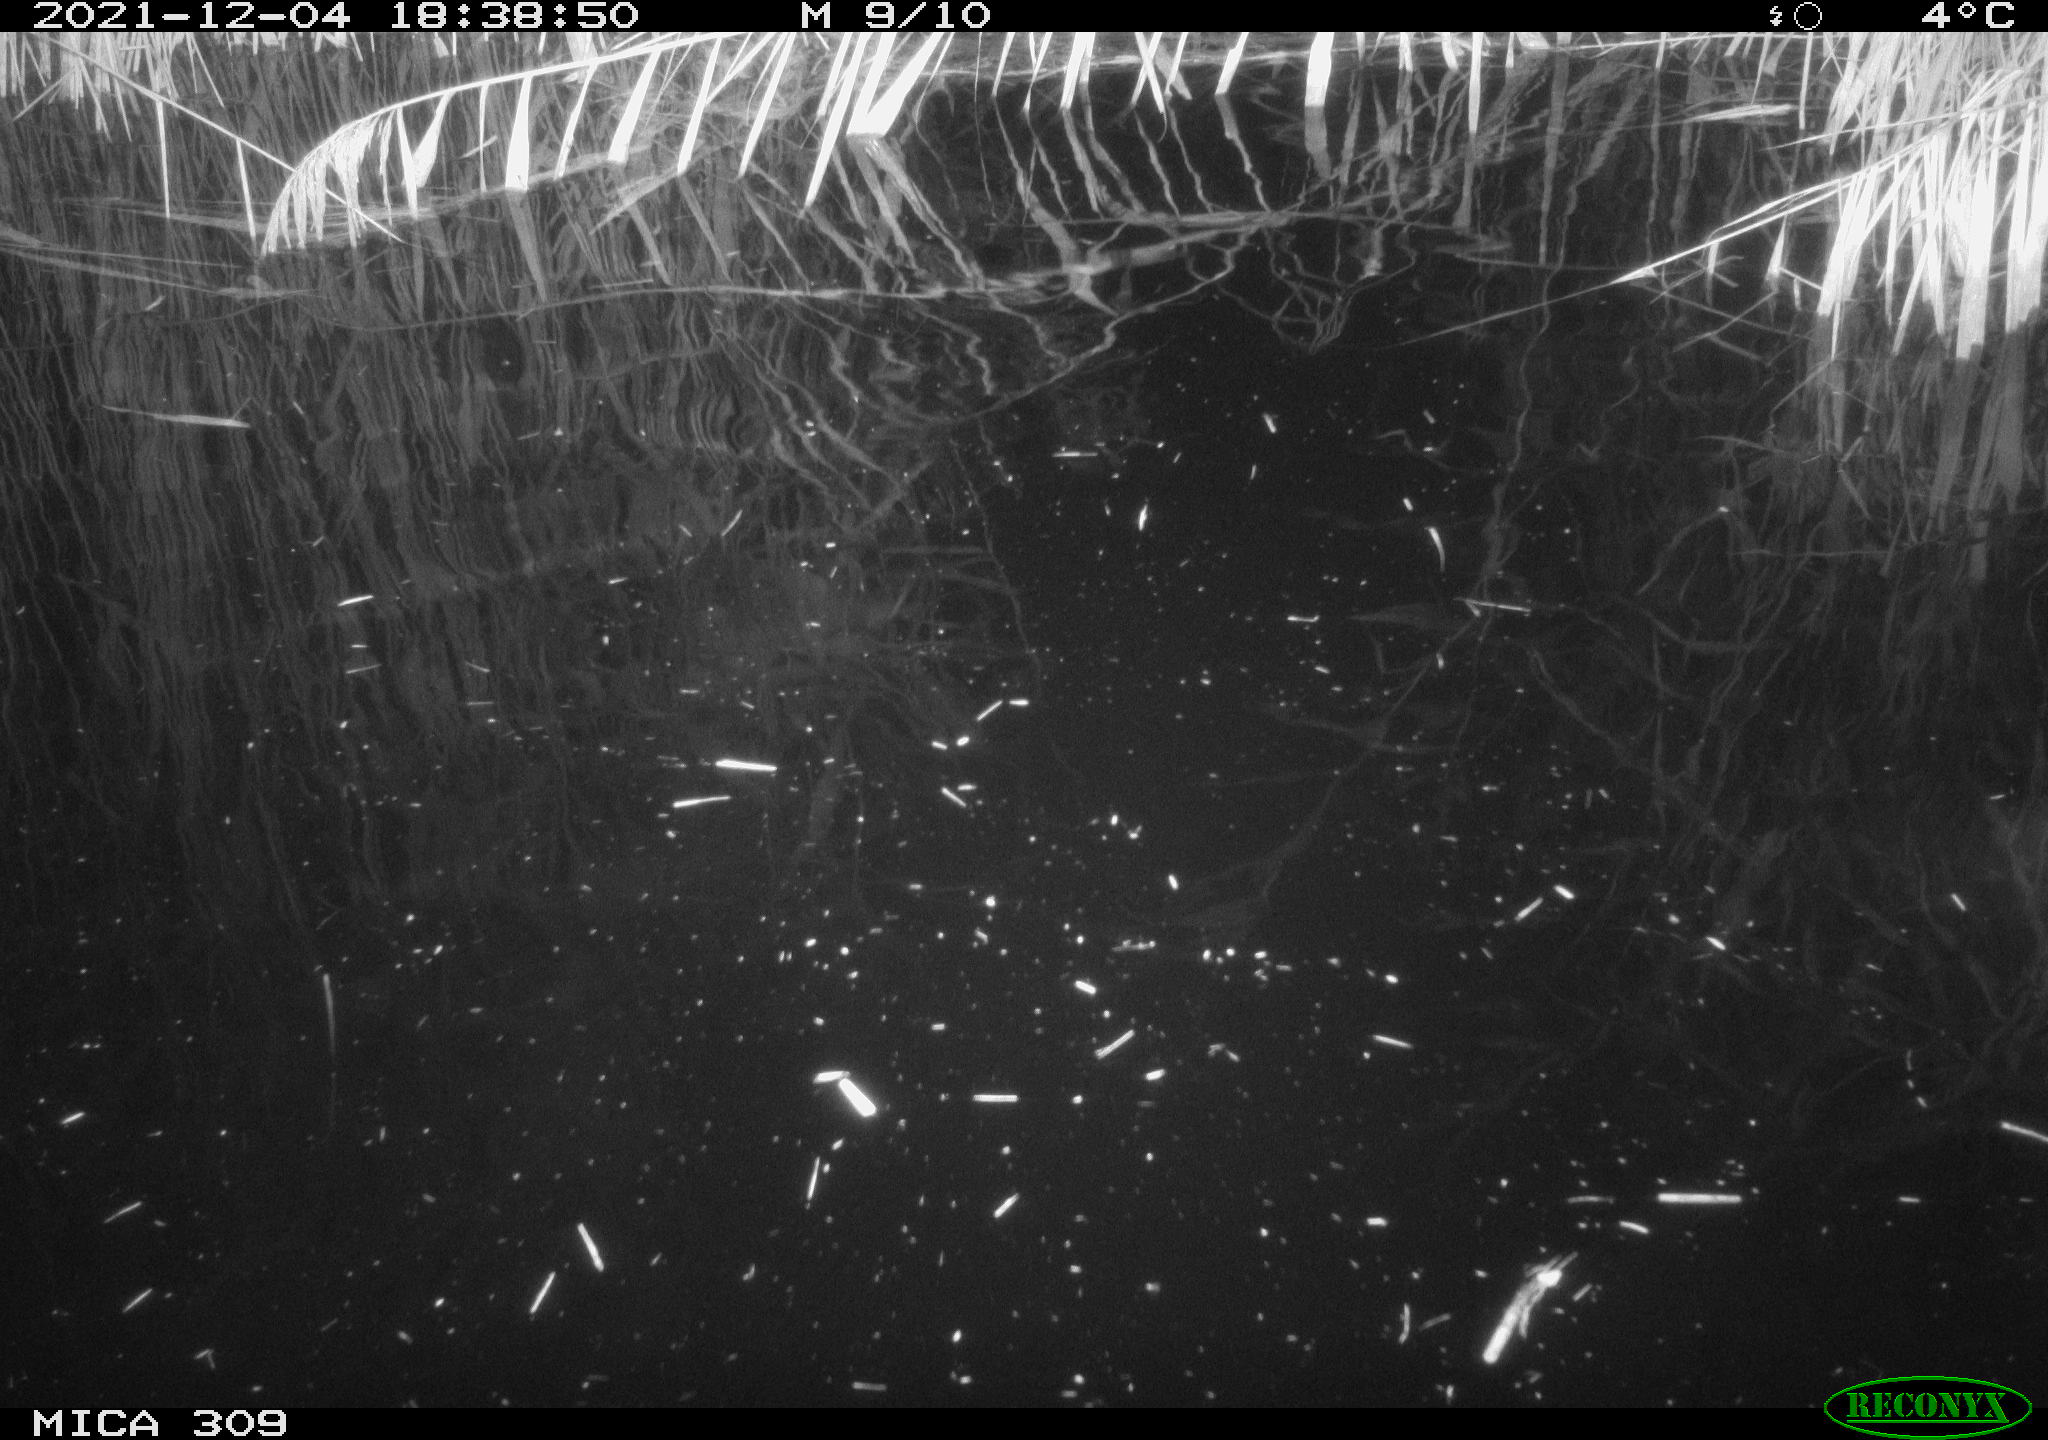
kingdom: Animalia
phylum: Chordata
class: Mammalia
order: Rodentia
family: Muridae
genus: Rattus
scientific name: Rattus norvegicus
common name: Brown rat
